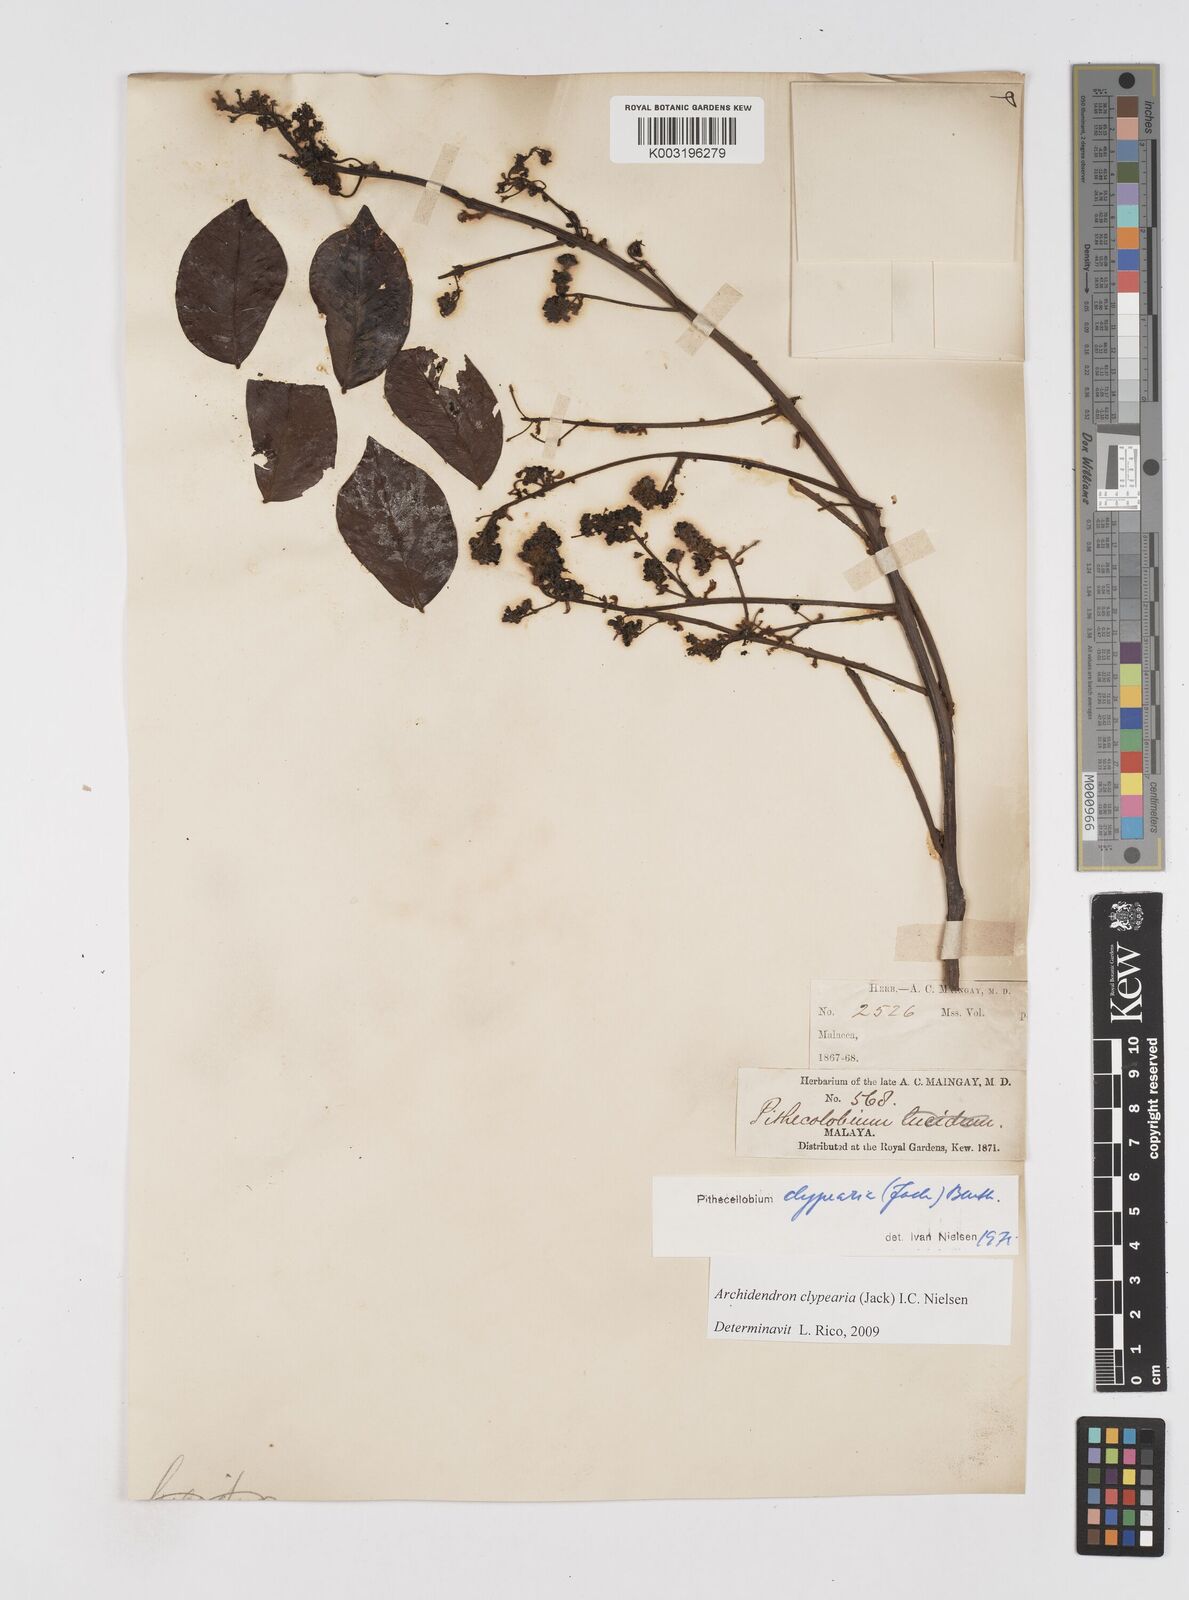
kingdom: Plantae
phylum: Tracheophyta
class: Magnoliopsida
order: Fabales
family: Fabaceae
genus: Archidendron
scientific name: Archidendron clypearia
